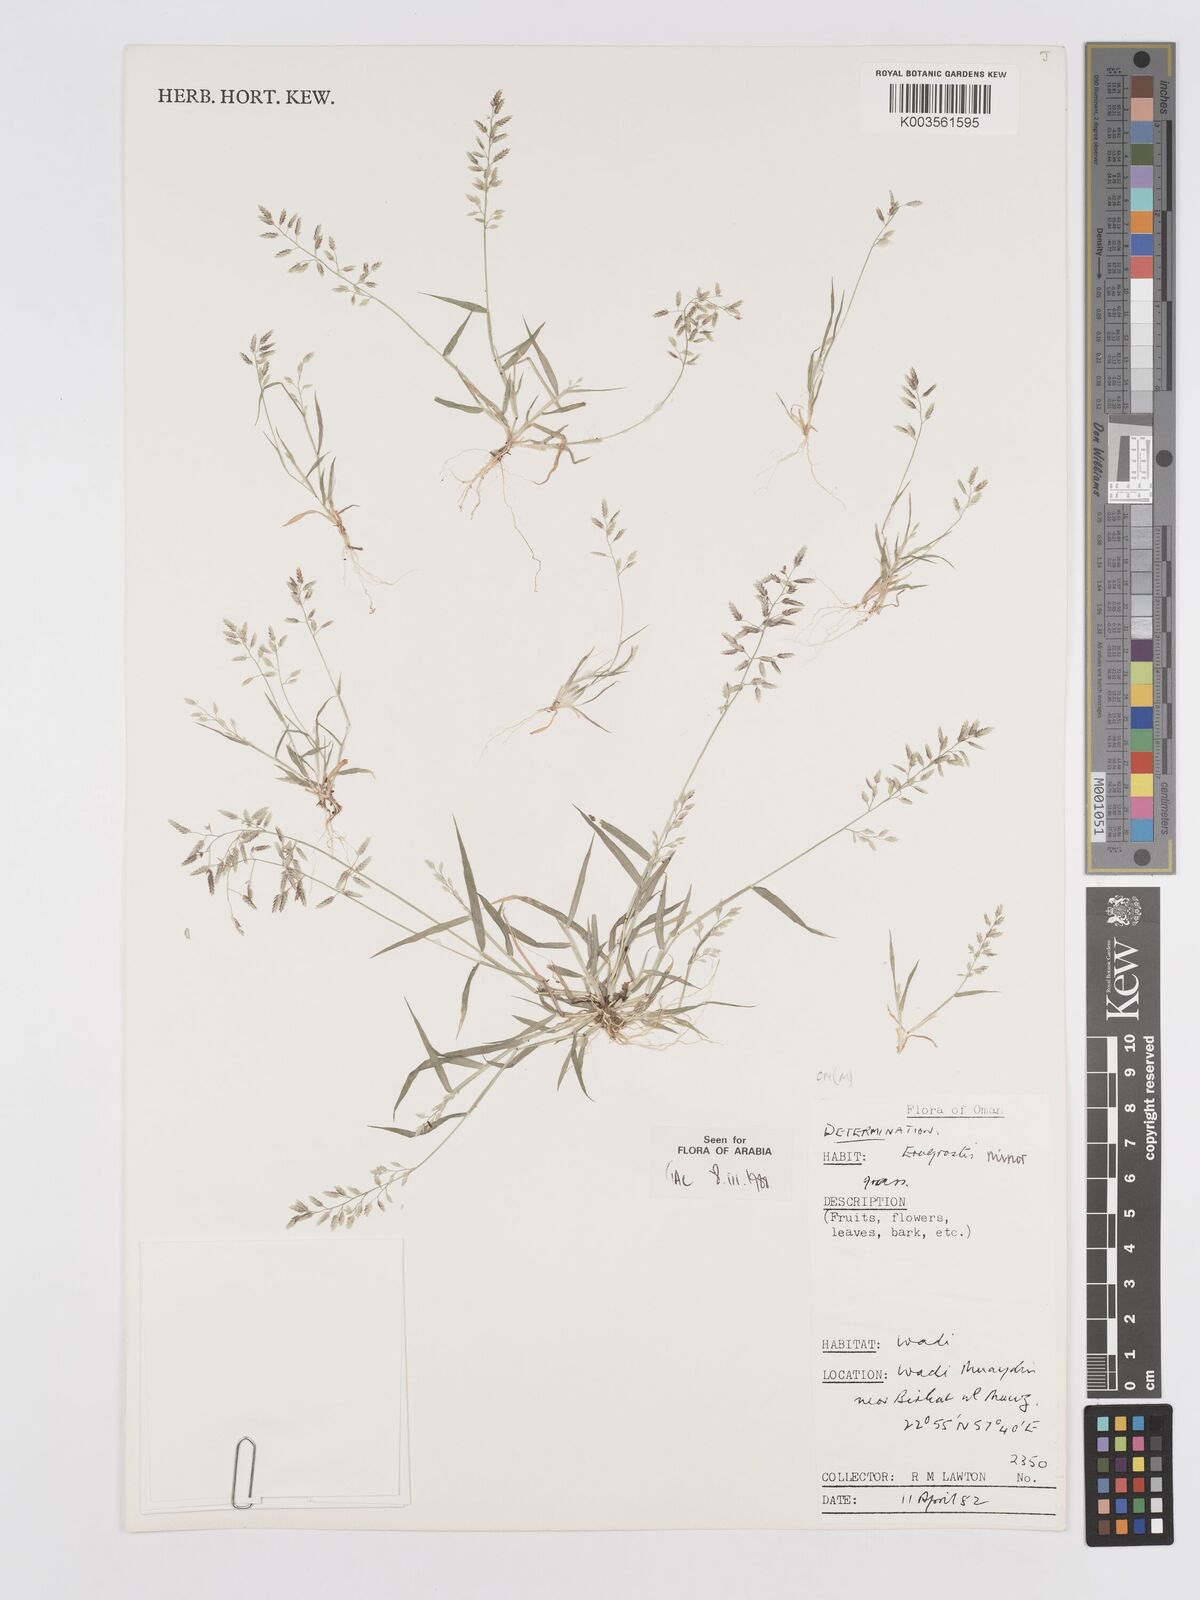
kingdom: Plantae
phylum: Tracheophyta
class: Liliopsida
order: Poales
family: Poaceae
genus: Eragrostis
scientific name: Eragrostis minor
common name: Small love-grass
